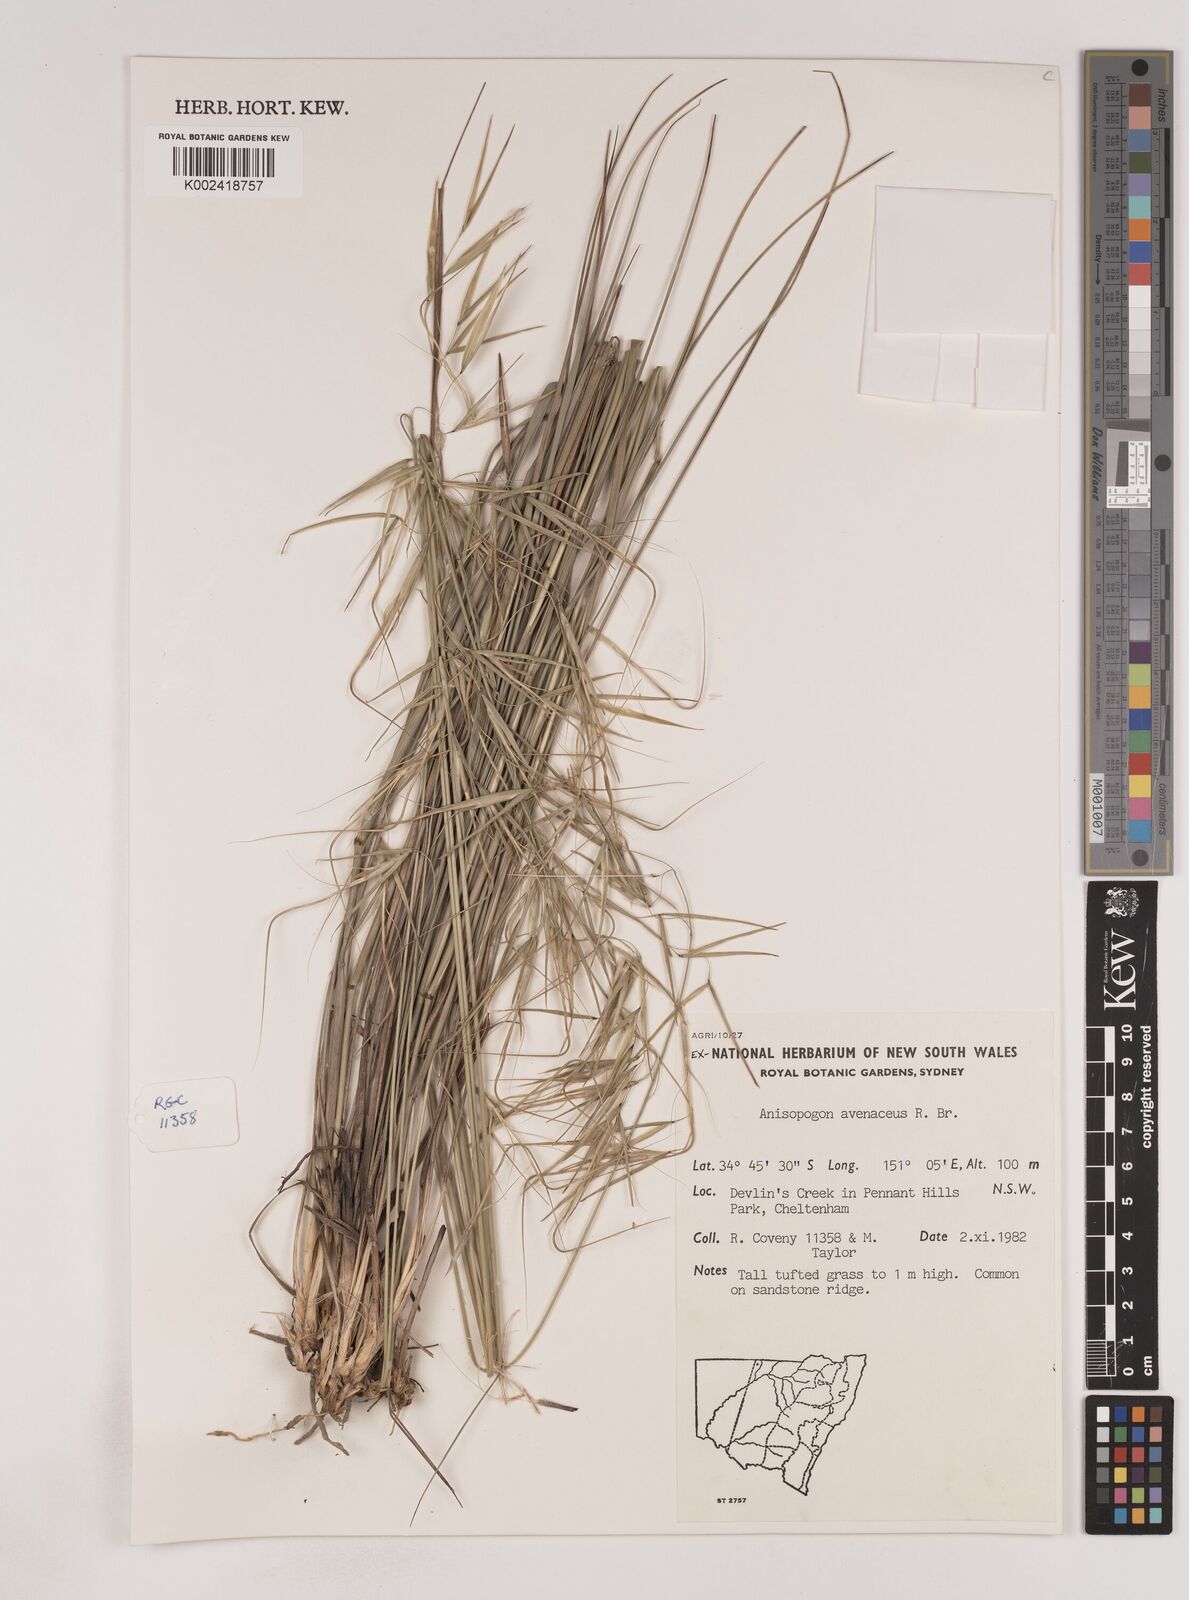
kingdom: Plantae
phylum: Tracheophyta
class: Liliopsida
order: Poales
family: Poaceae
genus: Anisopogon
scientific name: Anisopogon avenaceus
